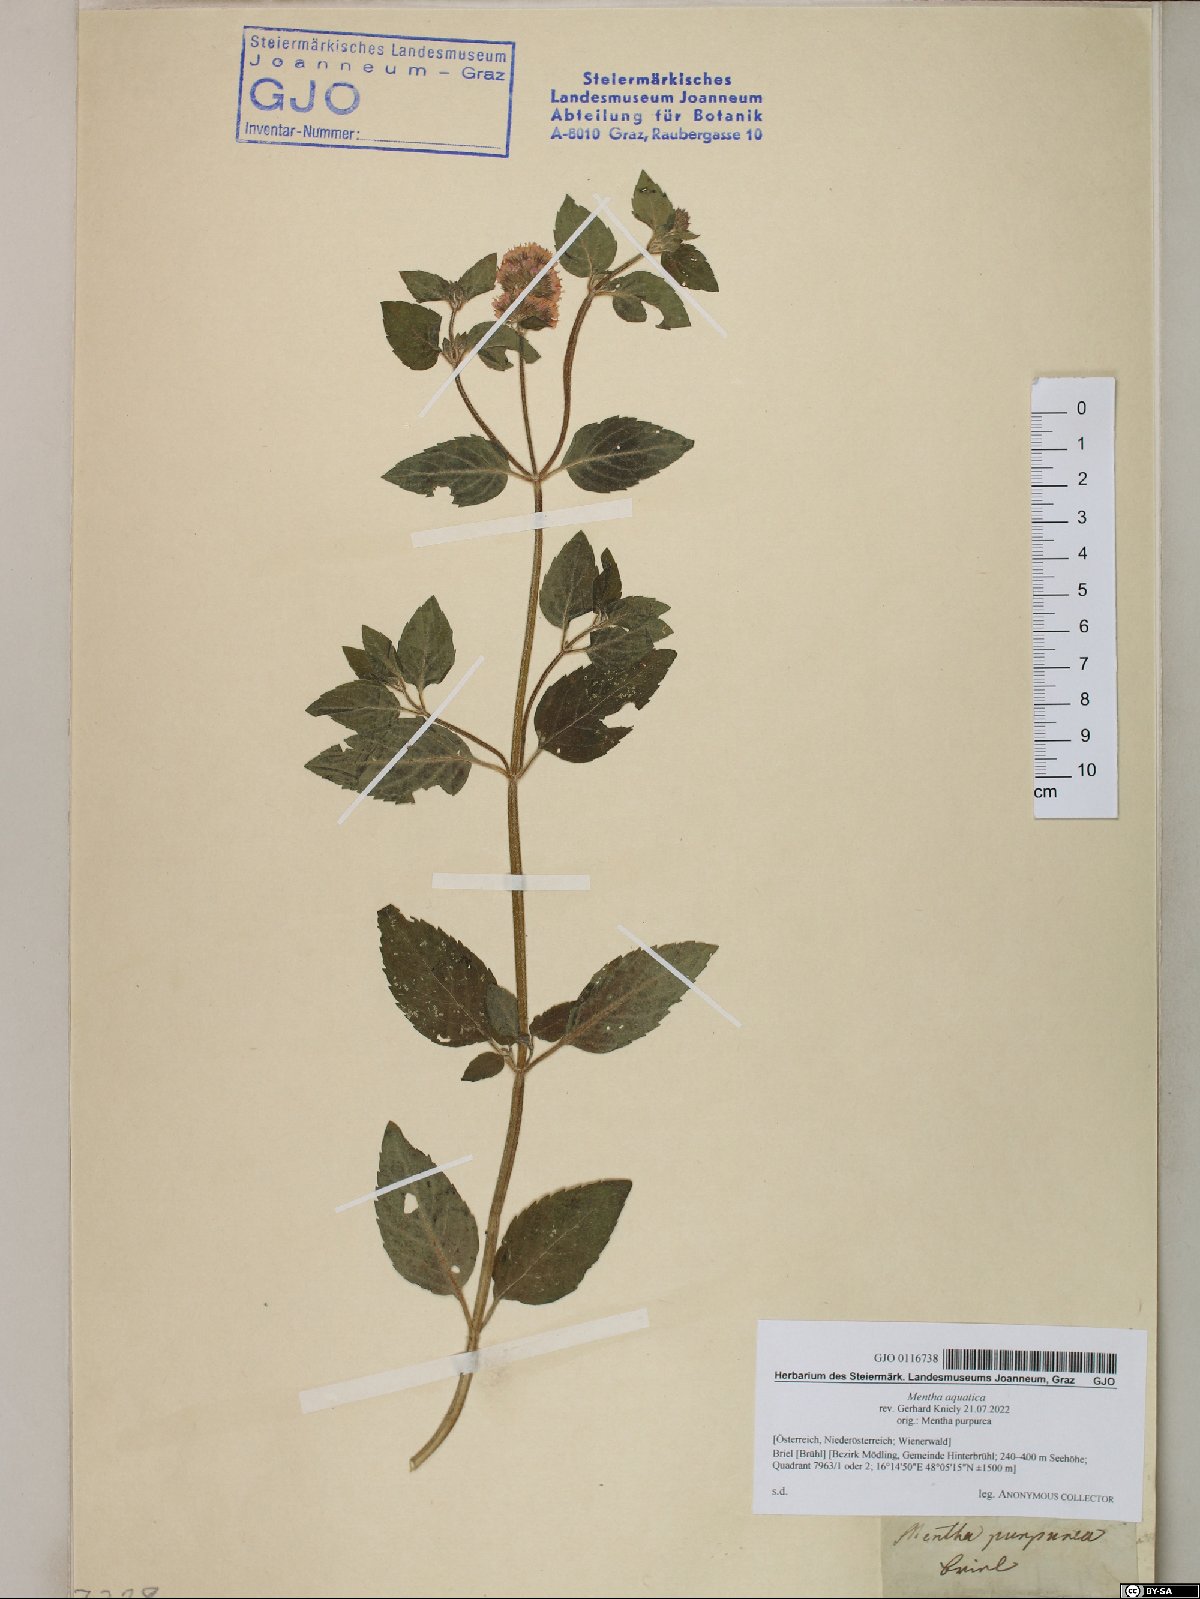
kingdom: Plantae
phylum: Tracheophyta
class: Magnoliopsida
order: Lamiales
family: Lamiaceae
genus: Mentha
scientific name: Mentha aquatica
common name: Water mint
